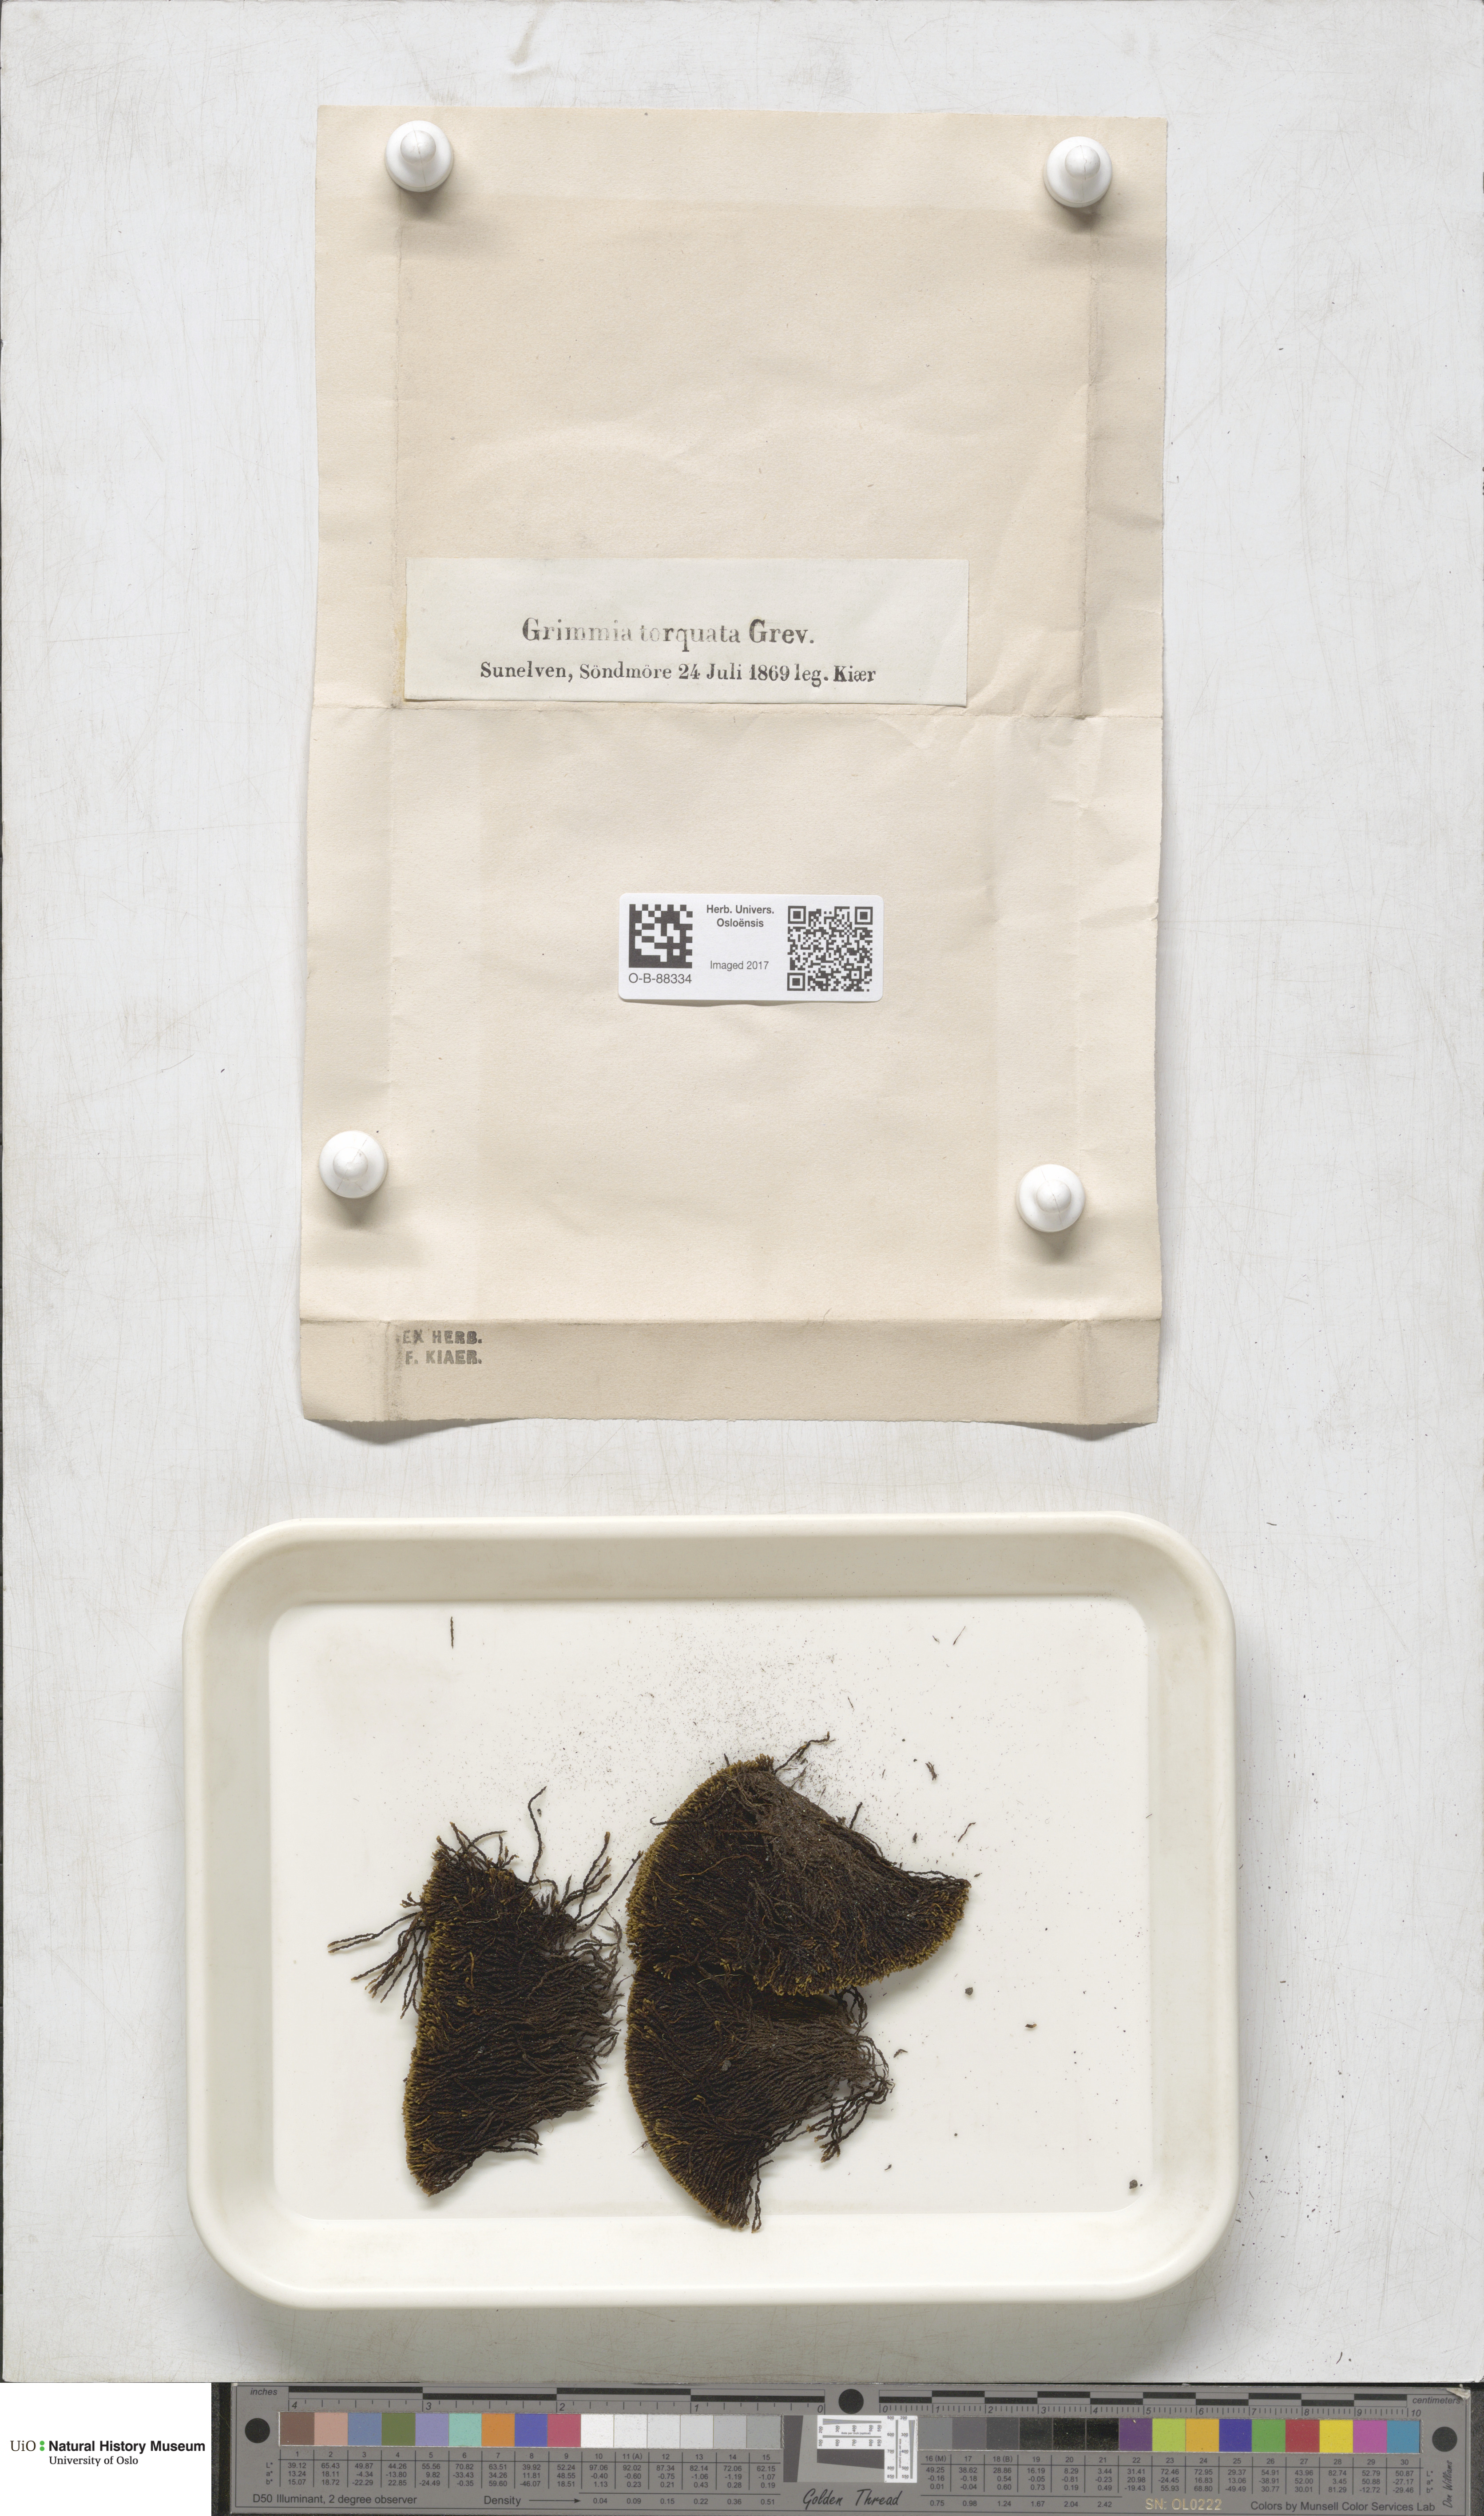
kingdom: Plantae
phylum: Bryophyta
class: Bryopsida
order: Grimmiales
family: Grimmiaceae
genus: Grimmia
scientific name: Grimmia torquata
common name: Twisted grimmia
